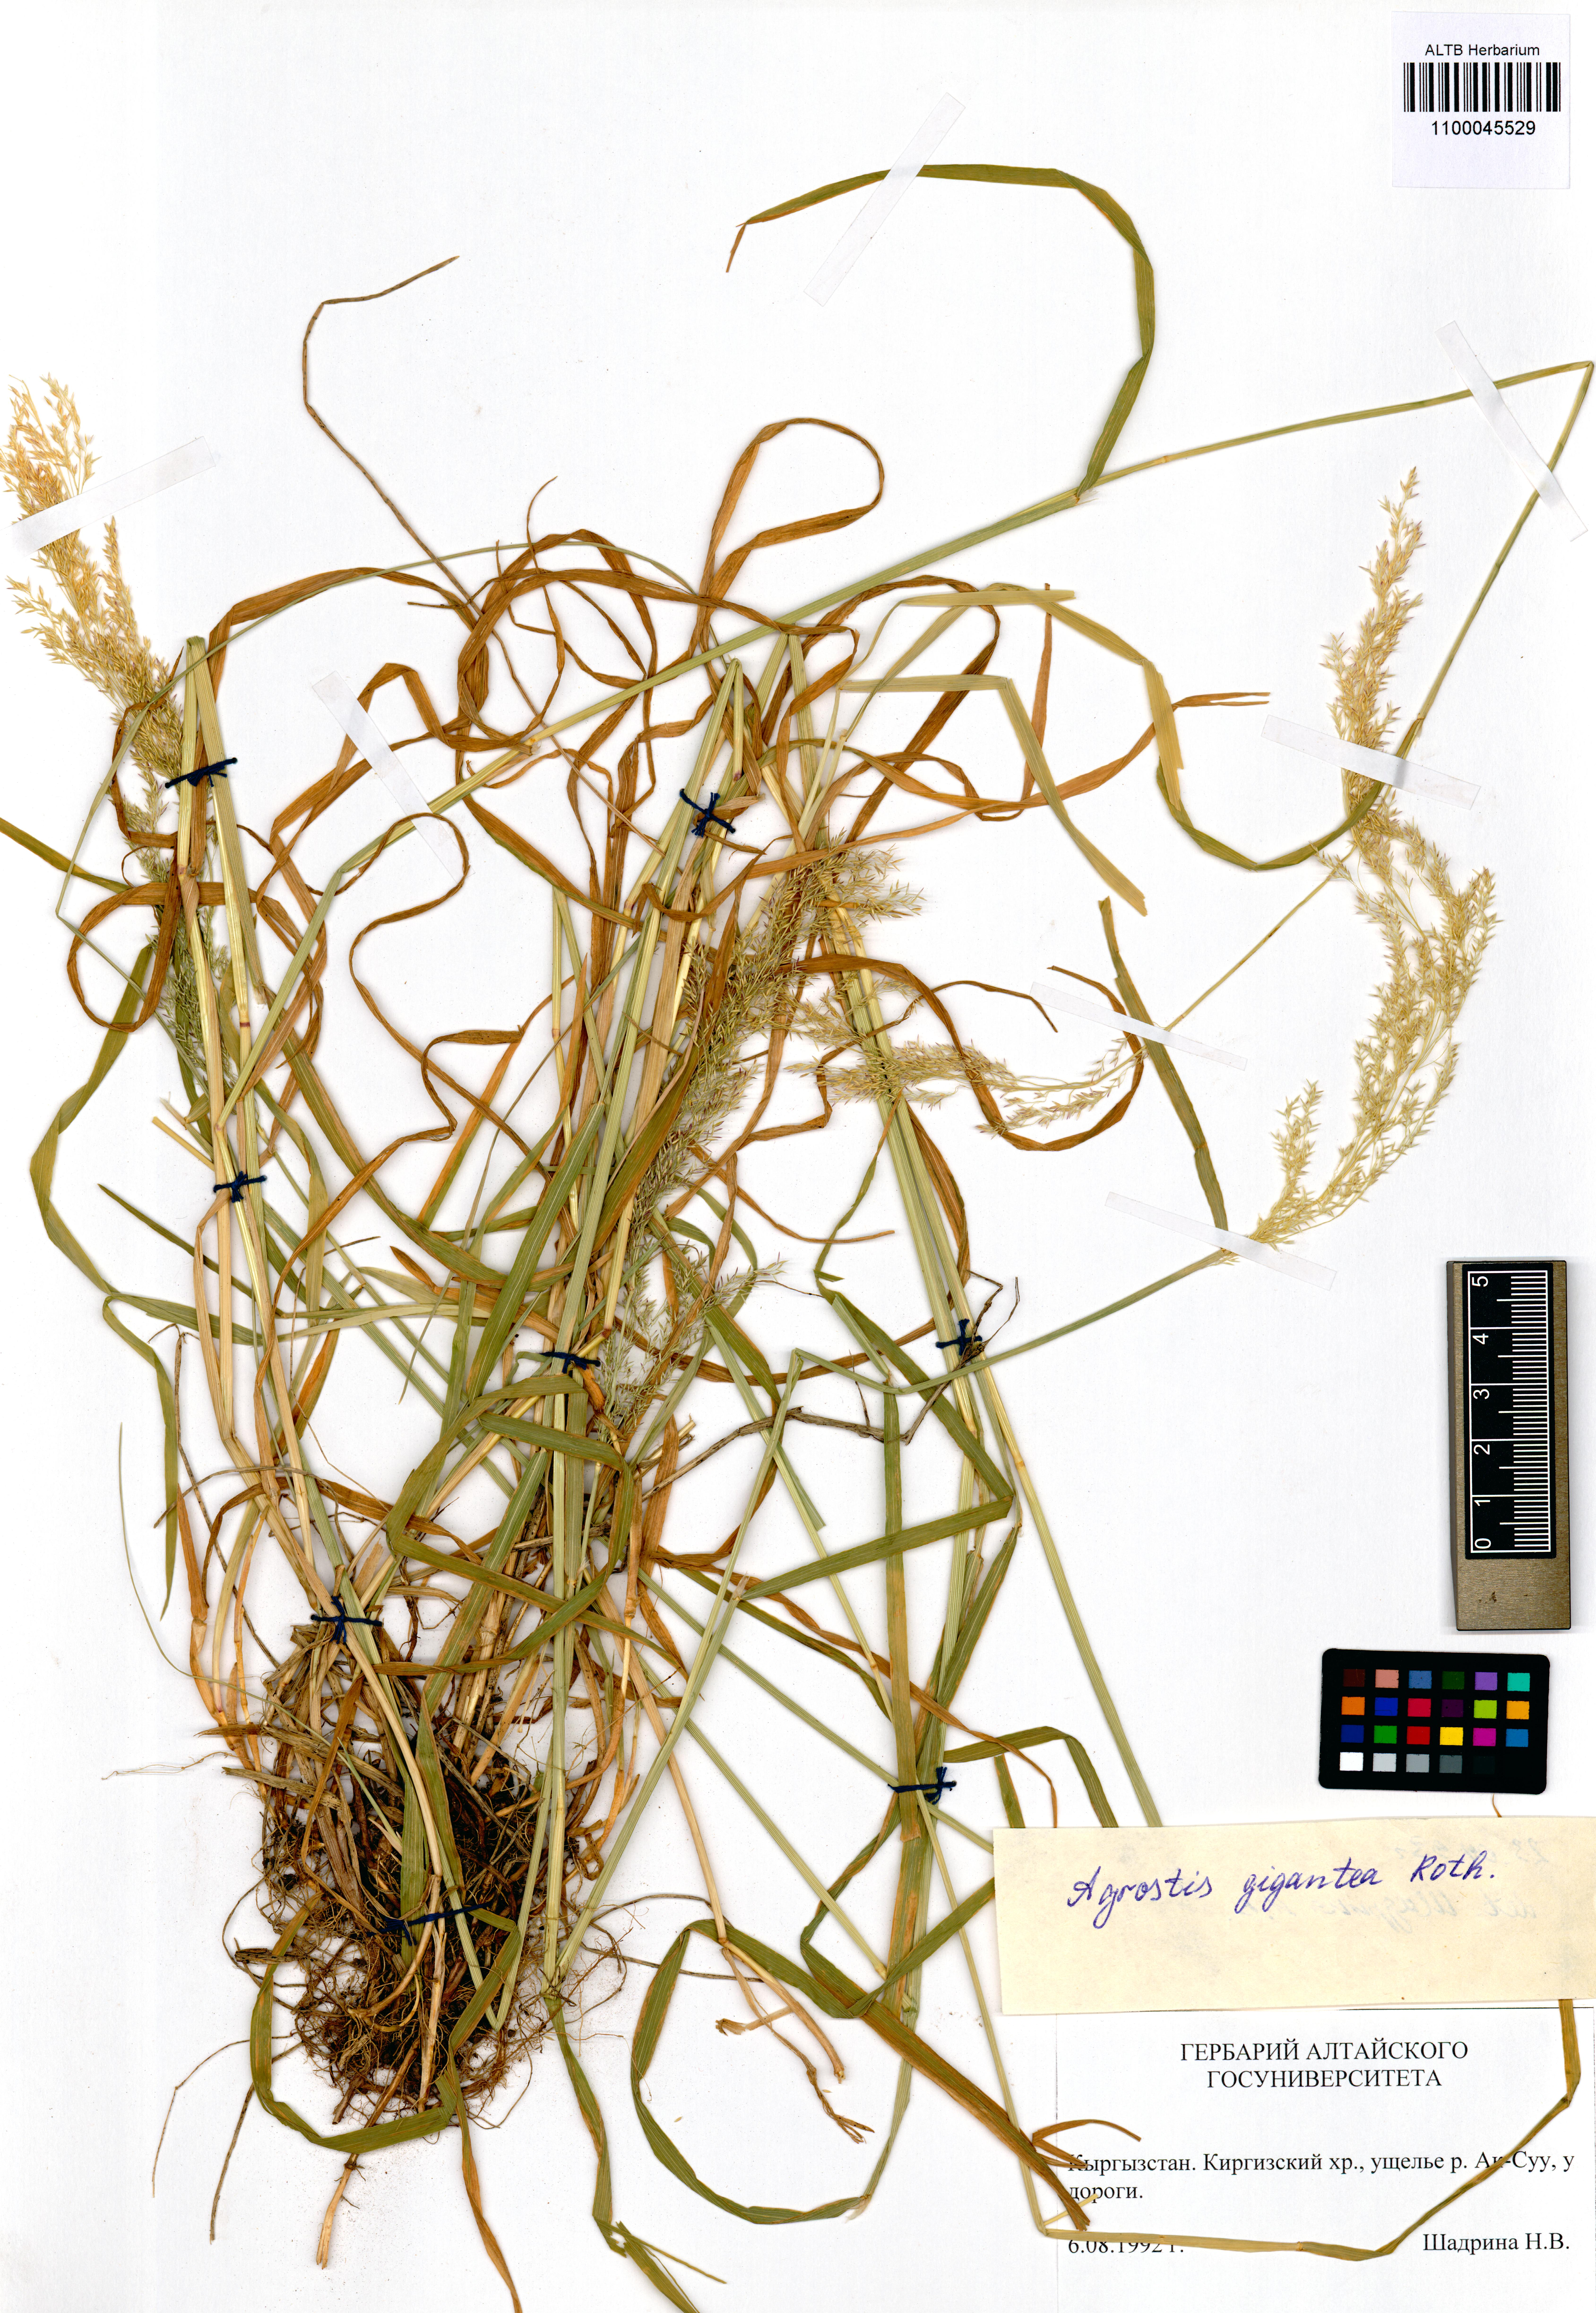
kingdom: Plantae
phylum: Tracheophyta
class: Liliopsida
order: Poales
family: Poaceae
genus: Agrostis
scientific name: Agrostis gigantea
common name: Black bent
